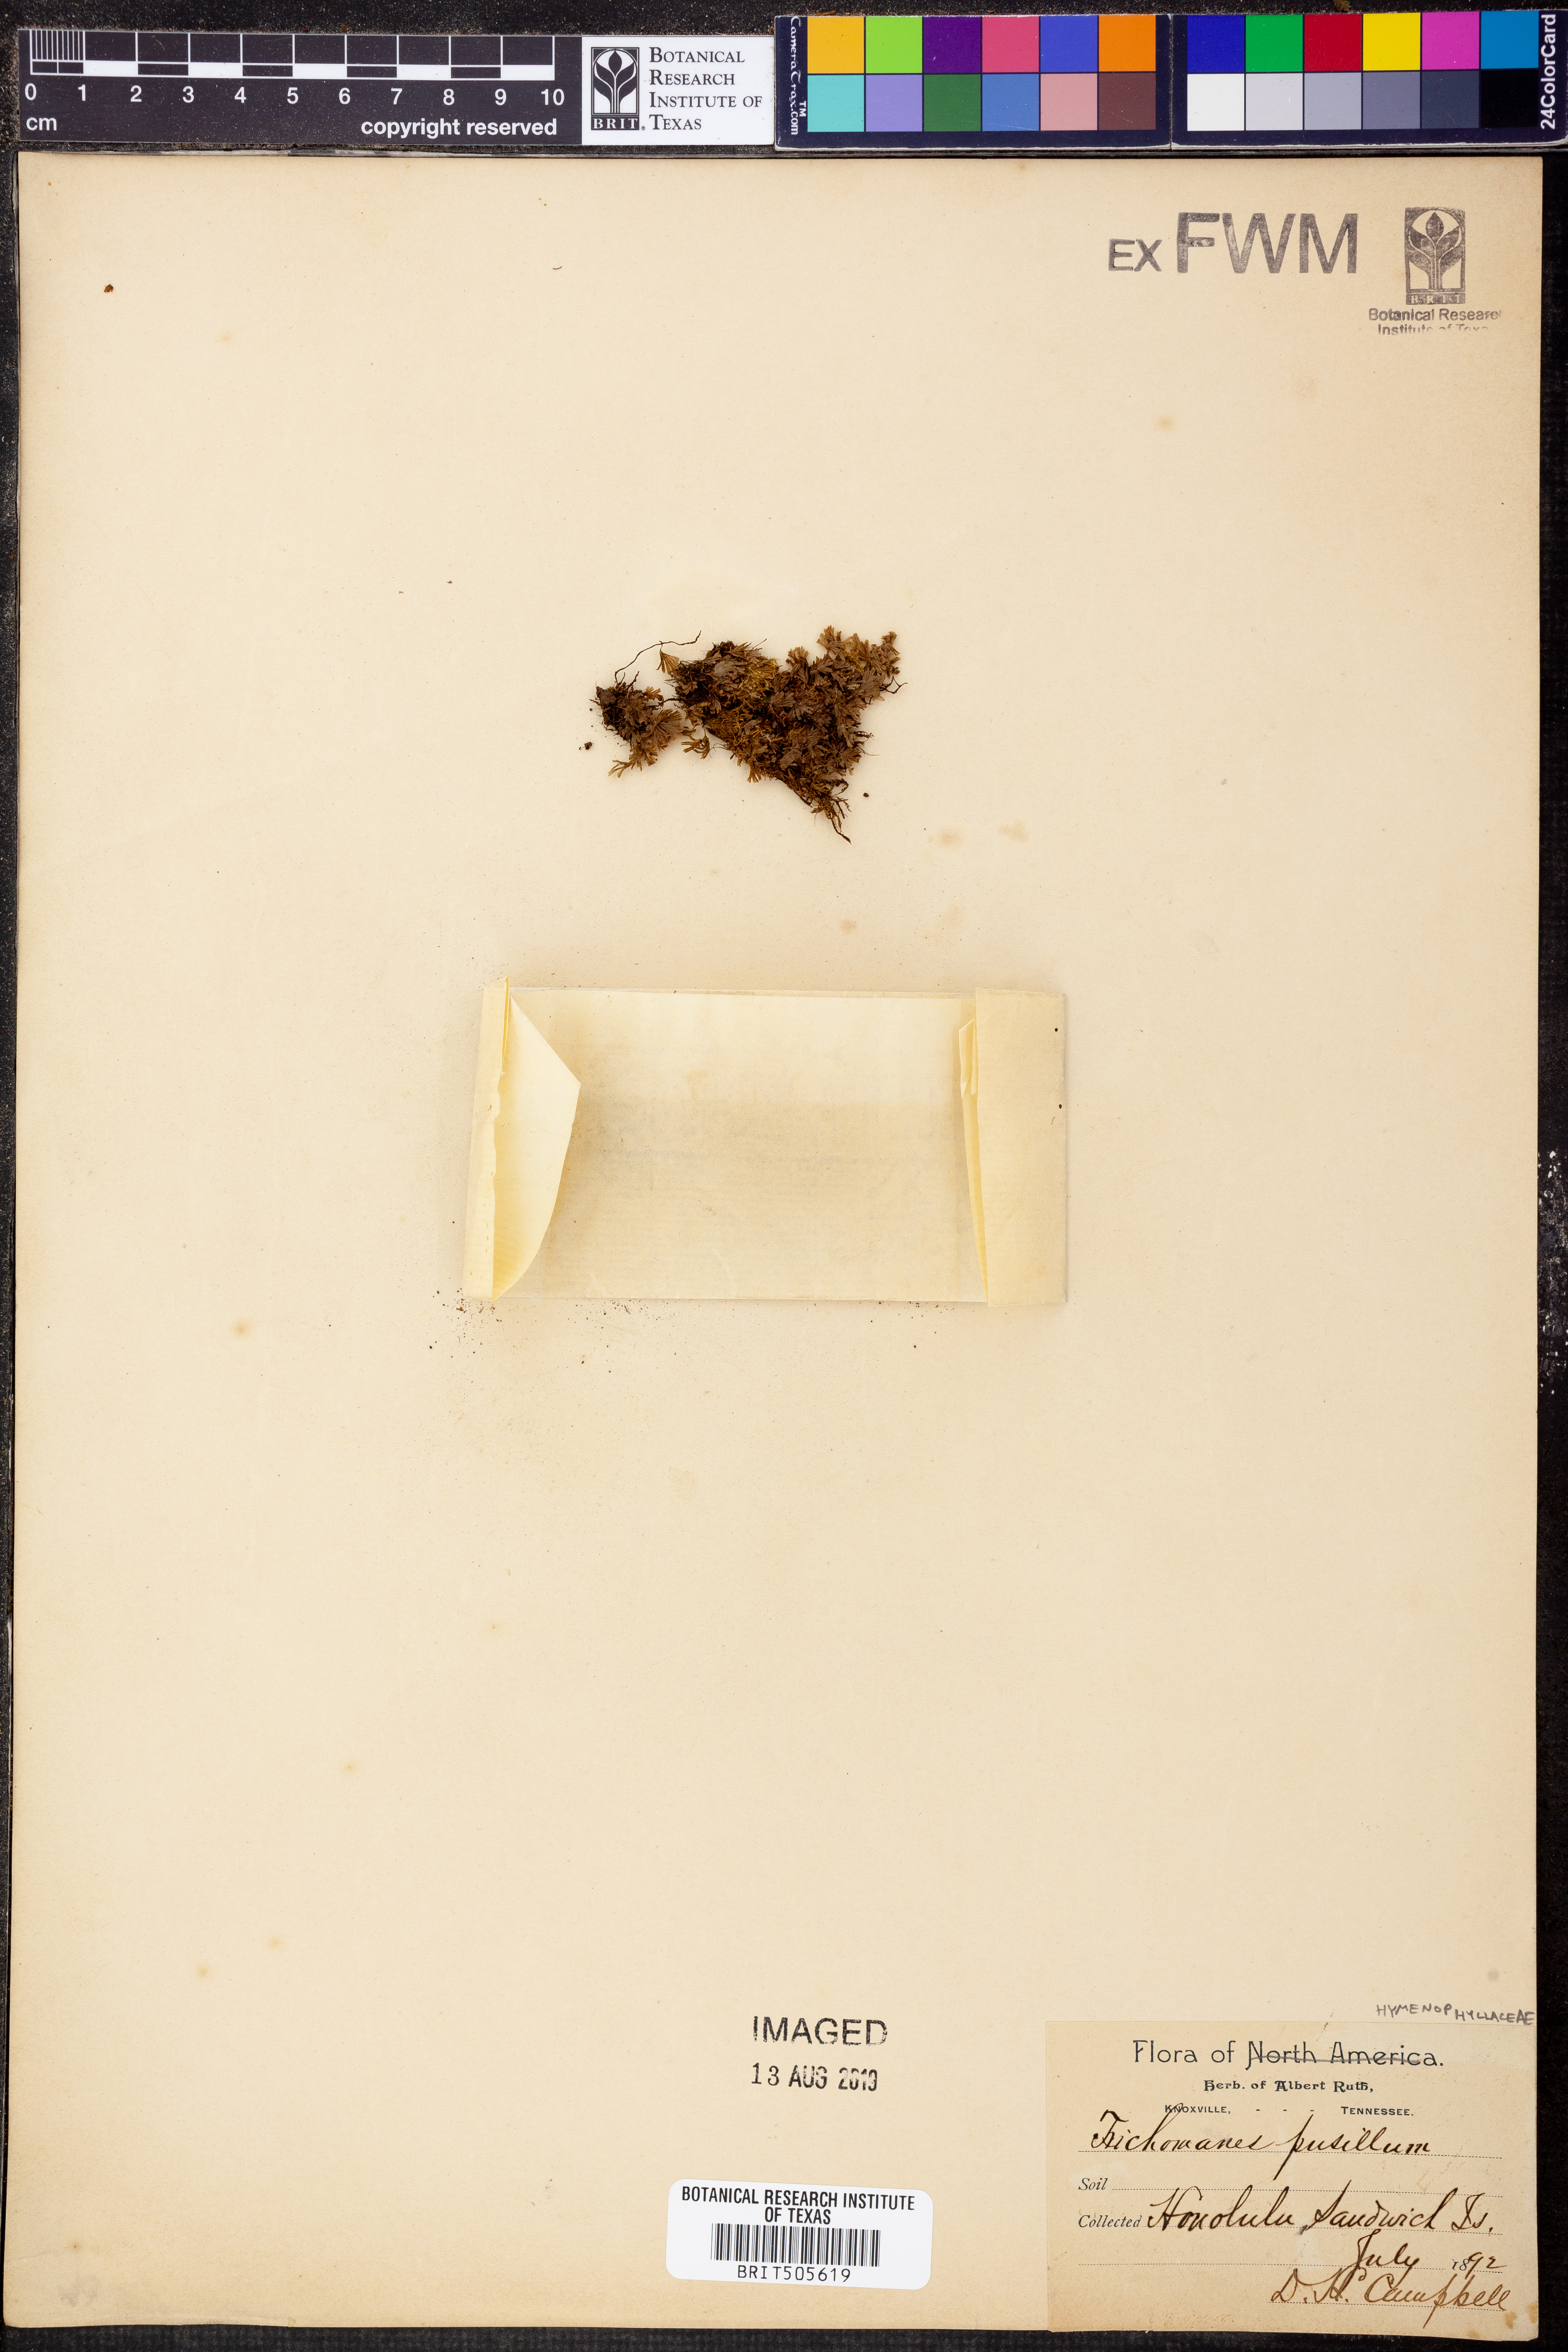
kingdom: Plantae
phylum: Tracheophyta
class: Polypodiopsida
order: Hymenophyllales
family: Hymenophyllaceae
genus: Didymoglossum
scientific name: Didymoglossum pusillum
